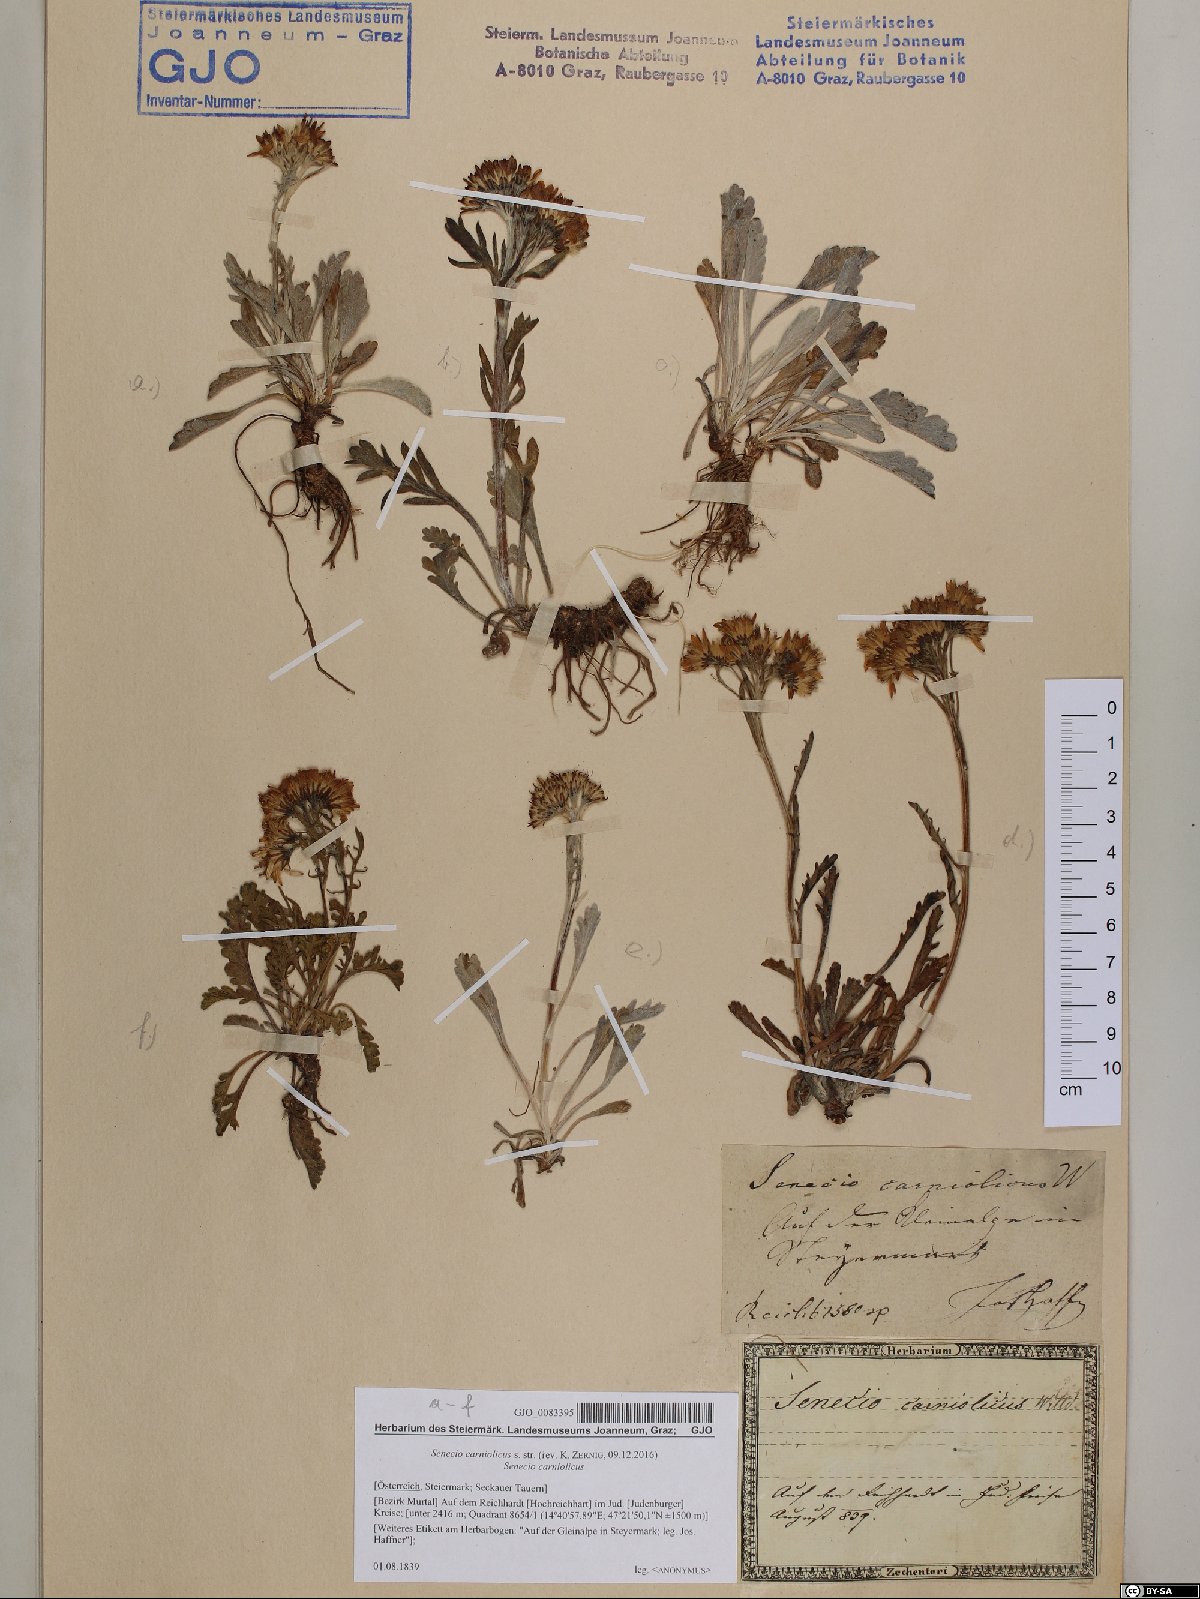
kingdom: Plantae
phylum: Tracheophyta
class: Magnoliopsida
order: Asterales
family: Asteraceae
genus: Jacobaea
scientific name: Jacobaea carniolica
